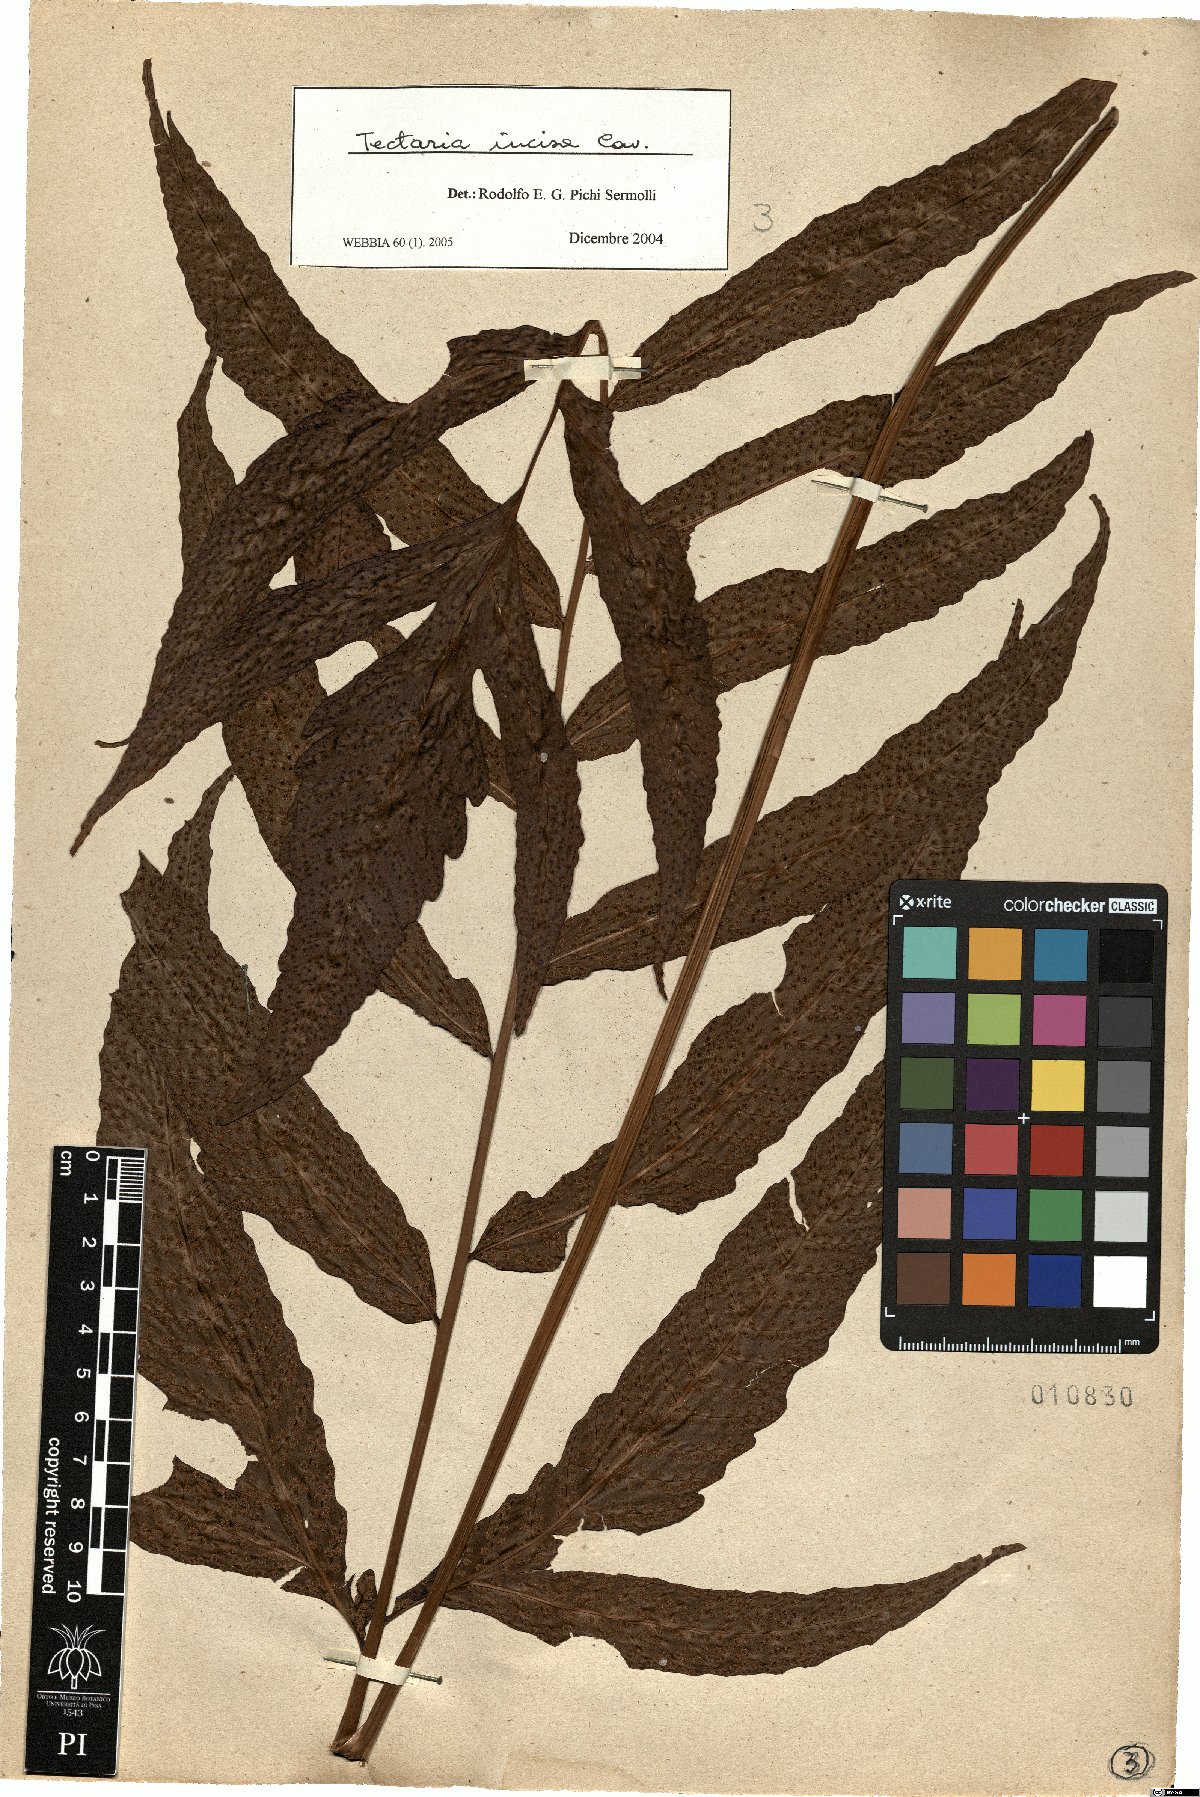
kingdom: Plantae
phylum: Tracheophyta
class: Polypodiopsida
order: Polypodiales
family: Tectariaceae
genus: Tectaria
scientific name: Tectaria incisa
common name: Incised halberd fern
